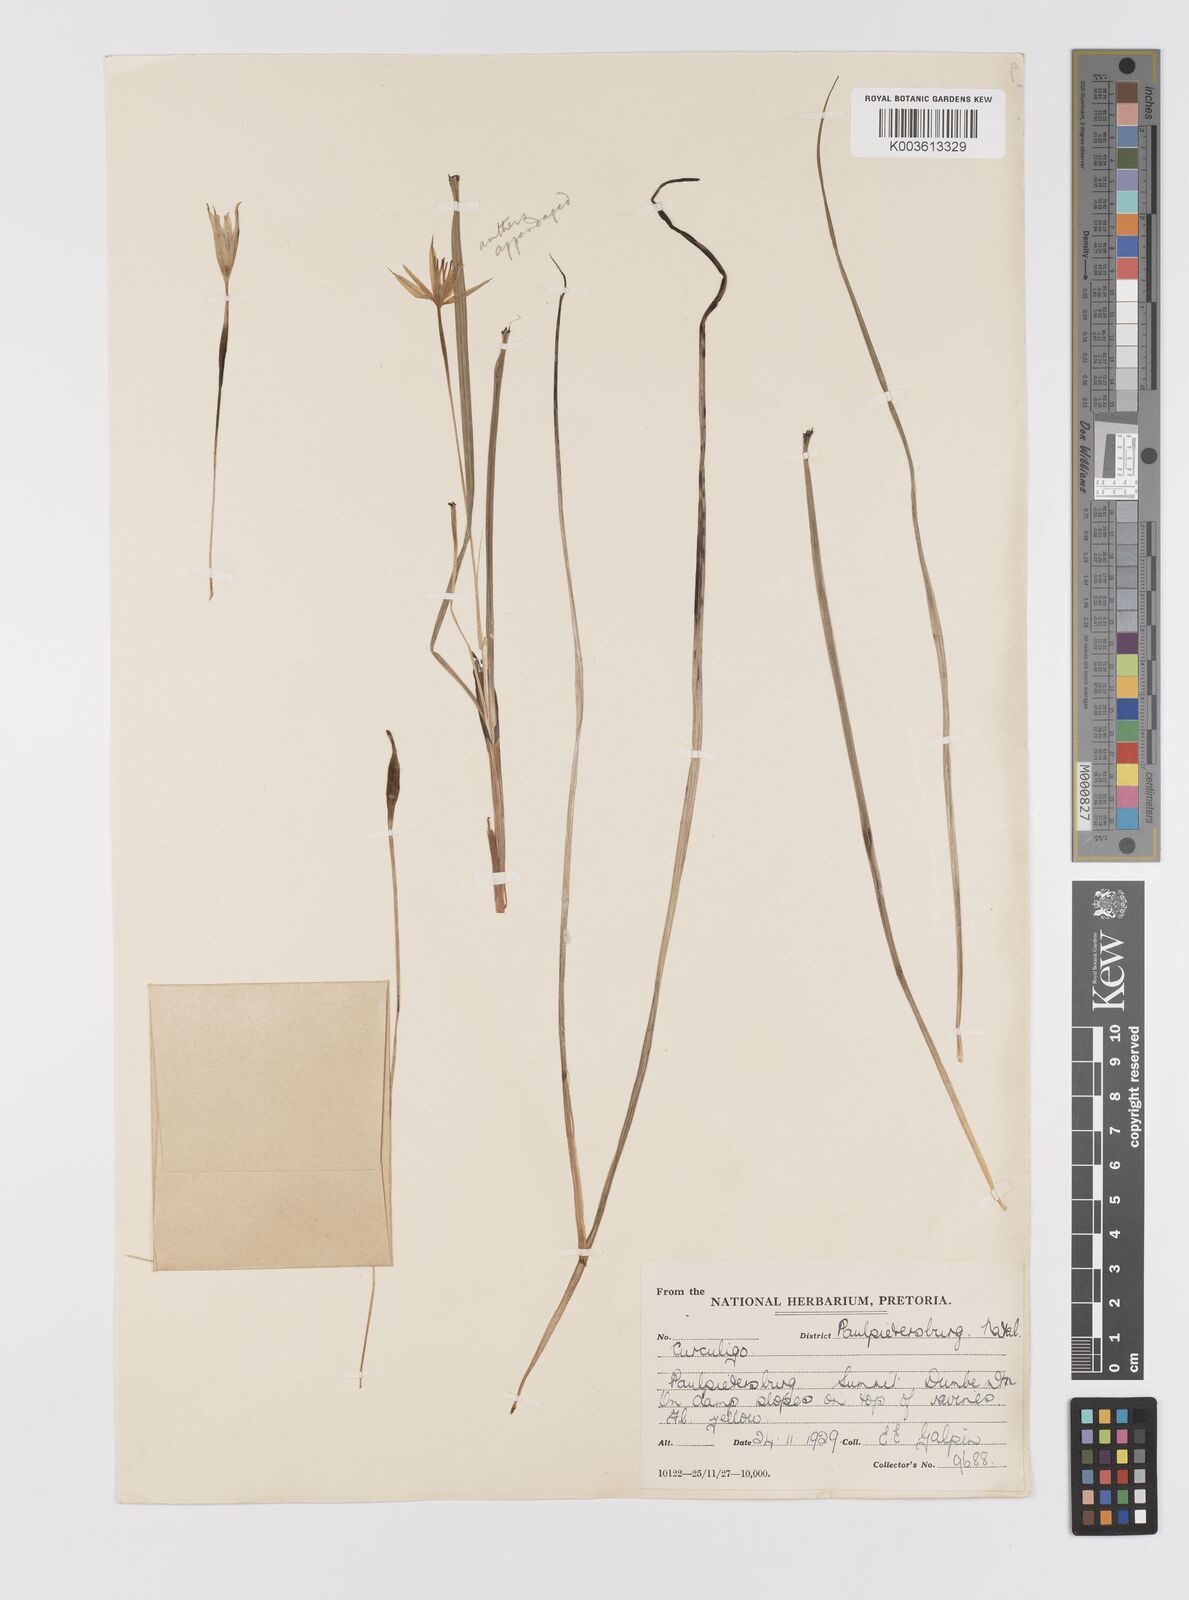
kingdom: Plantae
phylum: Tracheophyta
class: Liliopsida
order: Asparagales
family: Hypoxidaceae
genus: Empodium
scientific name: Empodium elongatum
